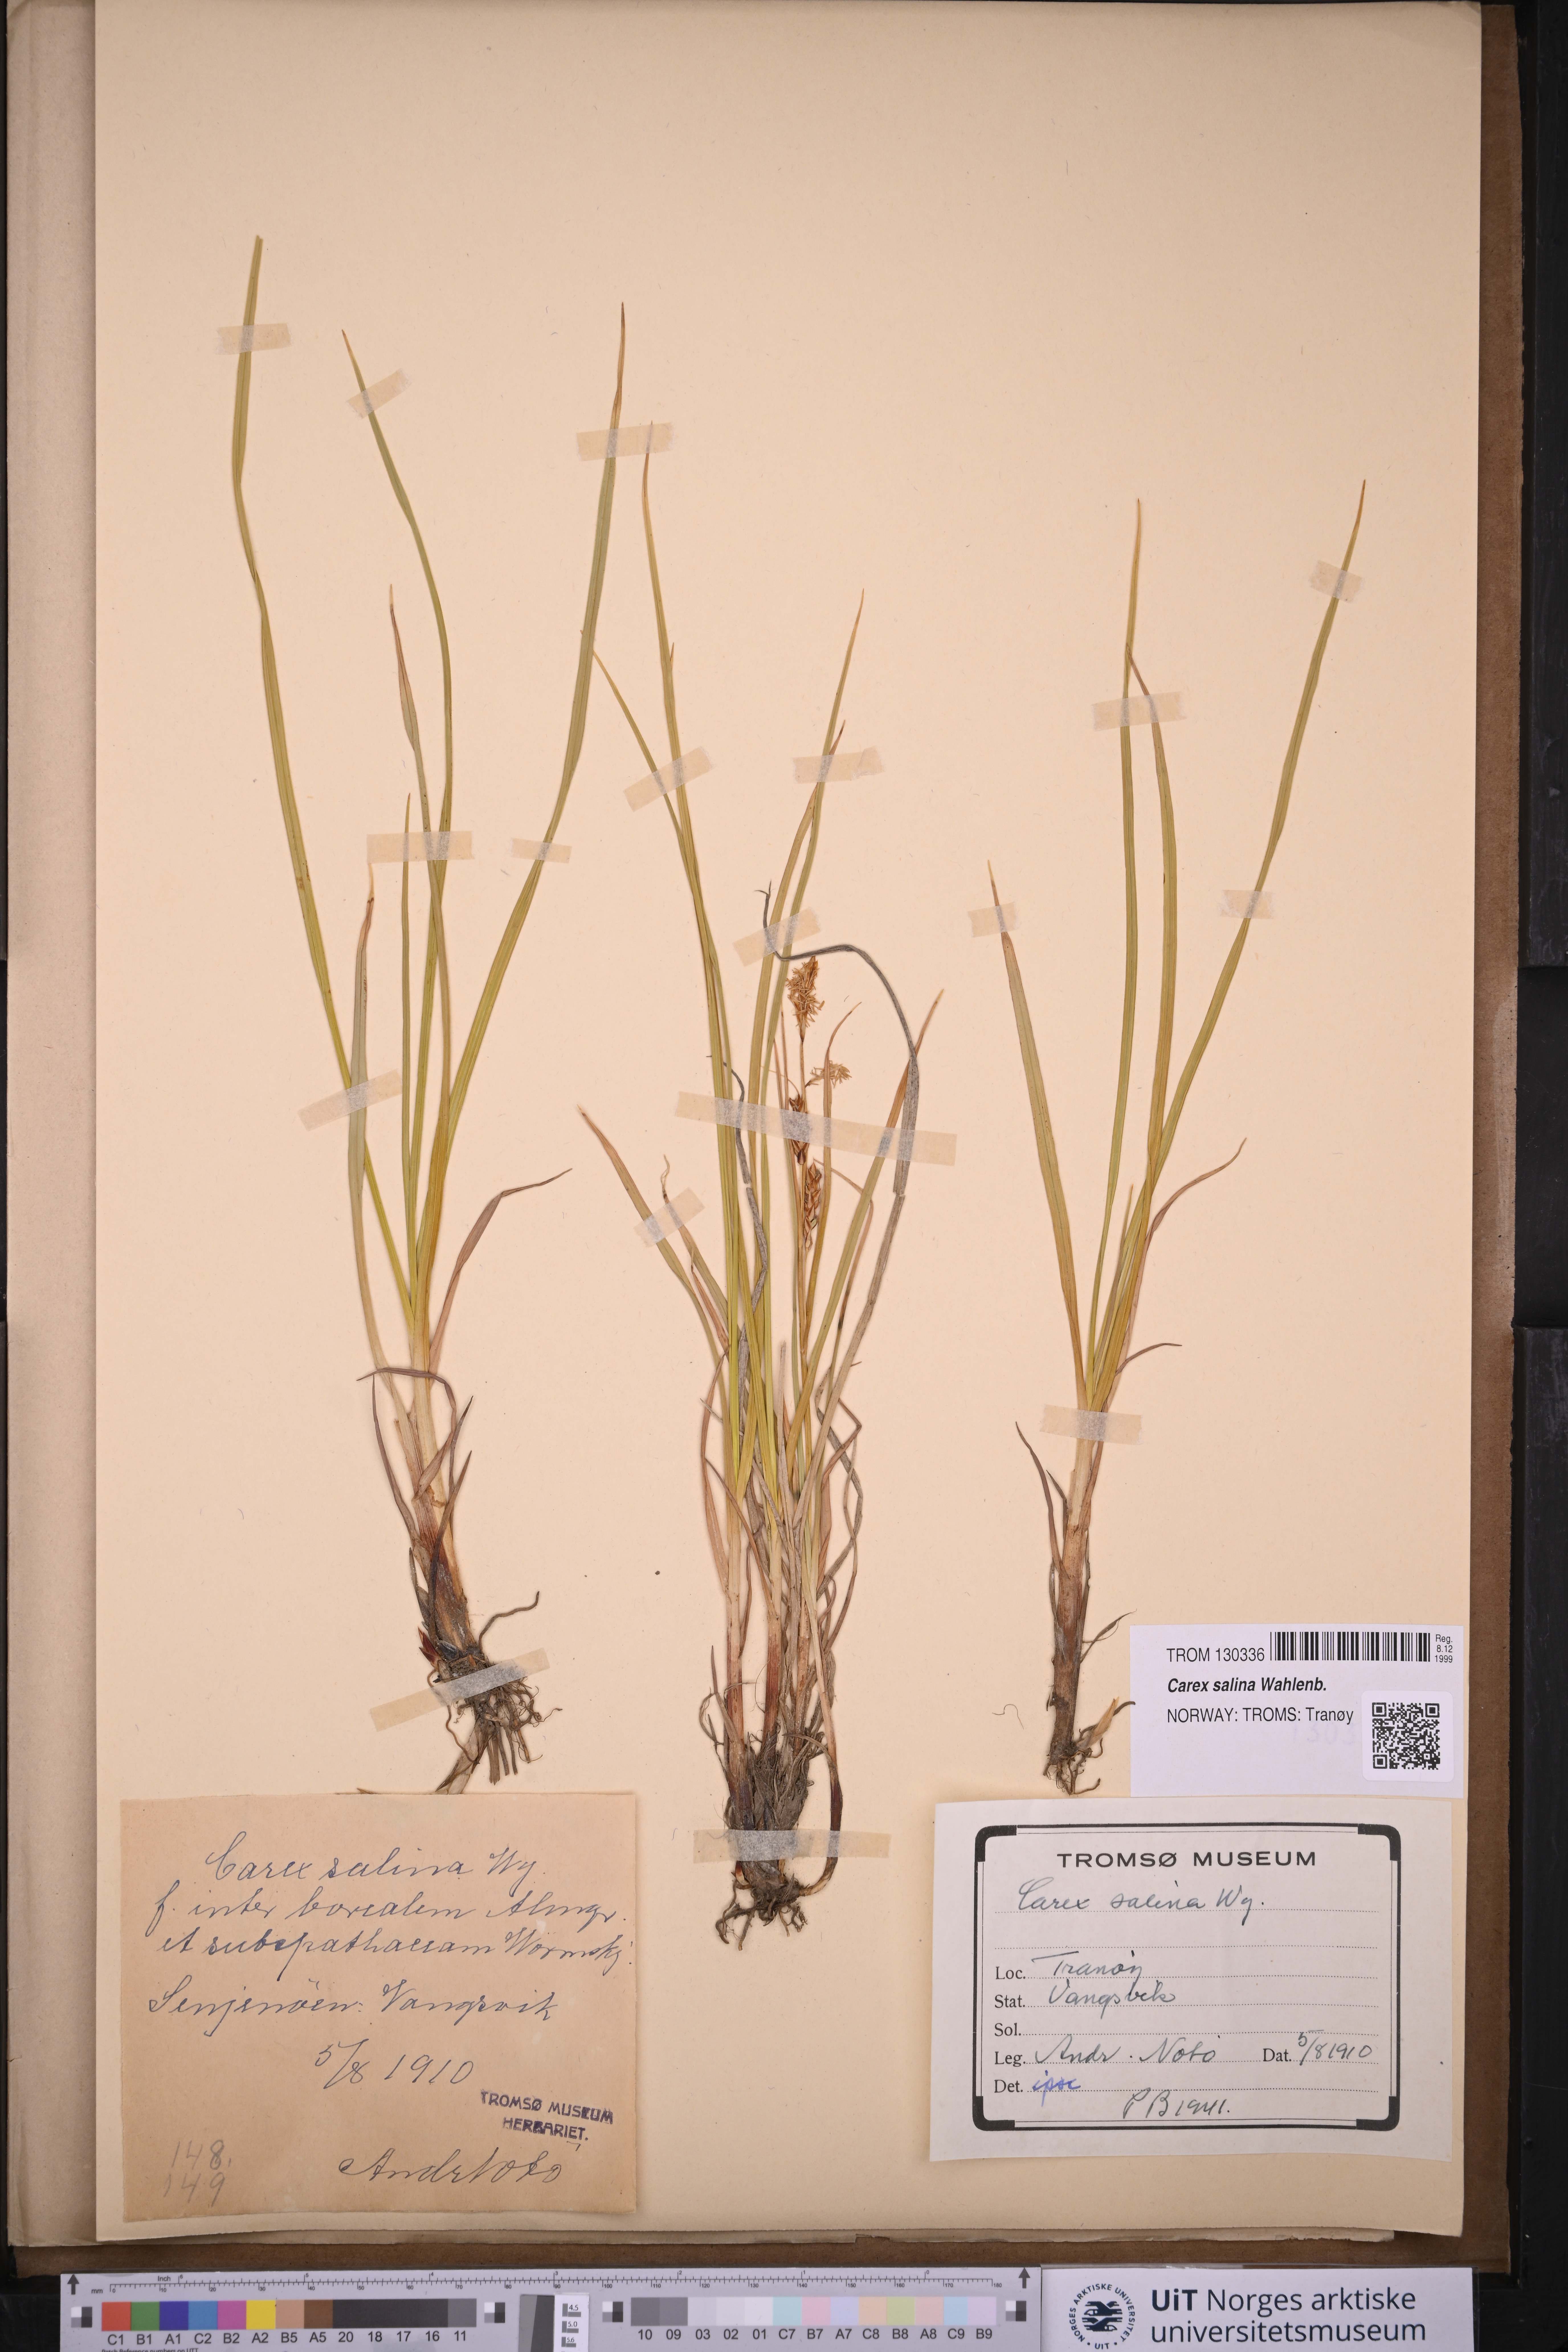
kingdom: Plantae
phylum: Tracheophyta
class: Liliopsida
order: Poales
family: Cyperaceae
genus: Carex
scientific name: Carex salina
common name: Saltmarsh sedge
